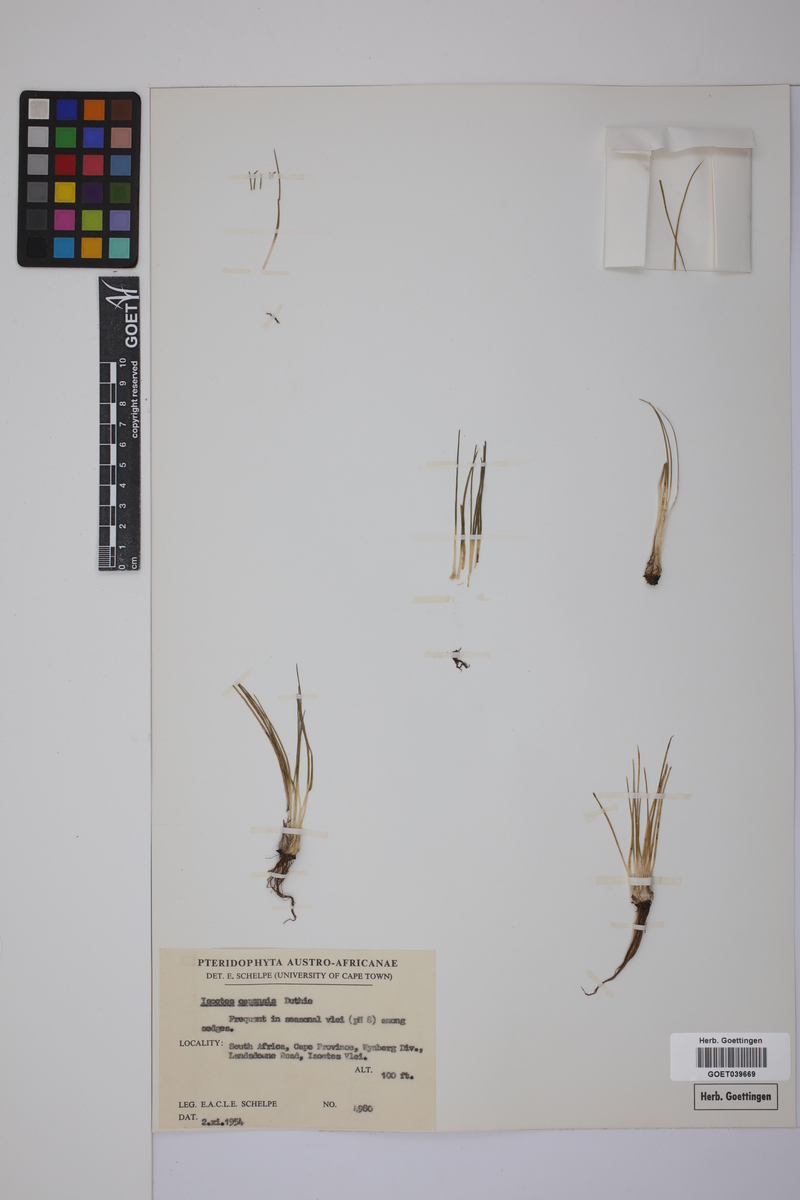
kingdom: Plantae
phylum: Tracheophyta
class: Lycopodiopsida
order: Isoetales
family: Isoetaceae
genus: Isoetes
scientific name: Isoetes capensis
